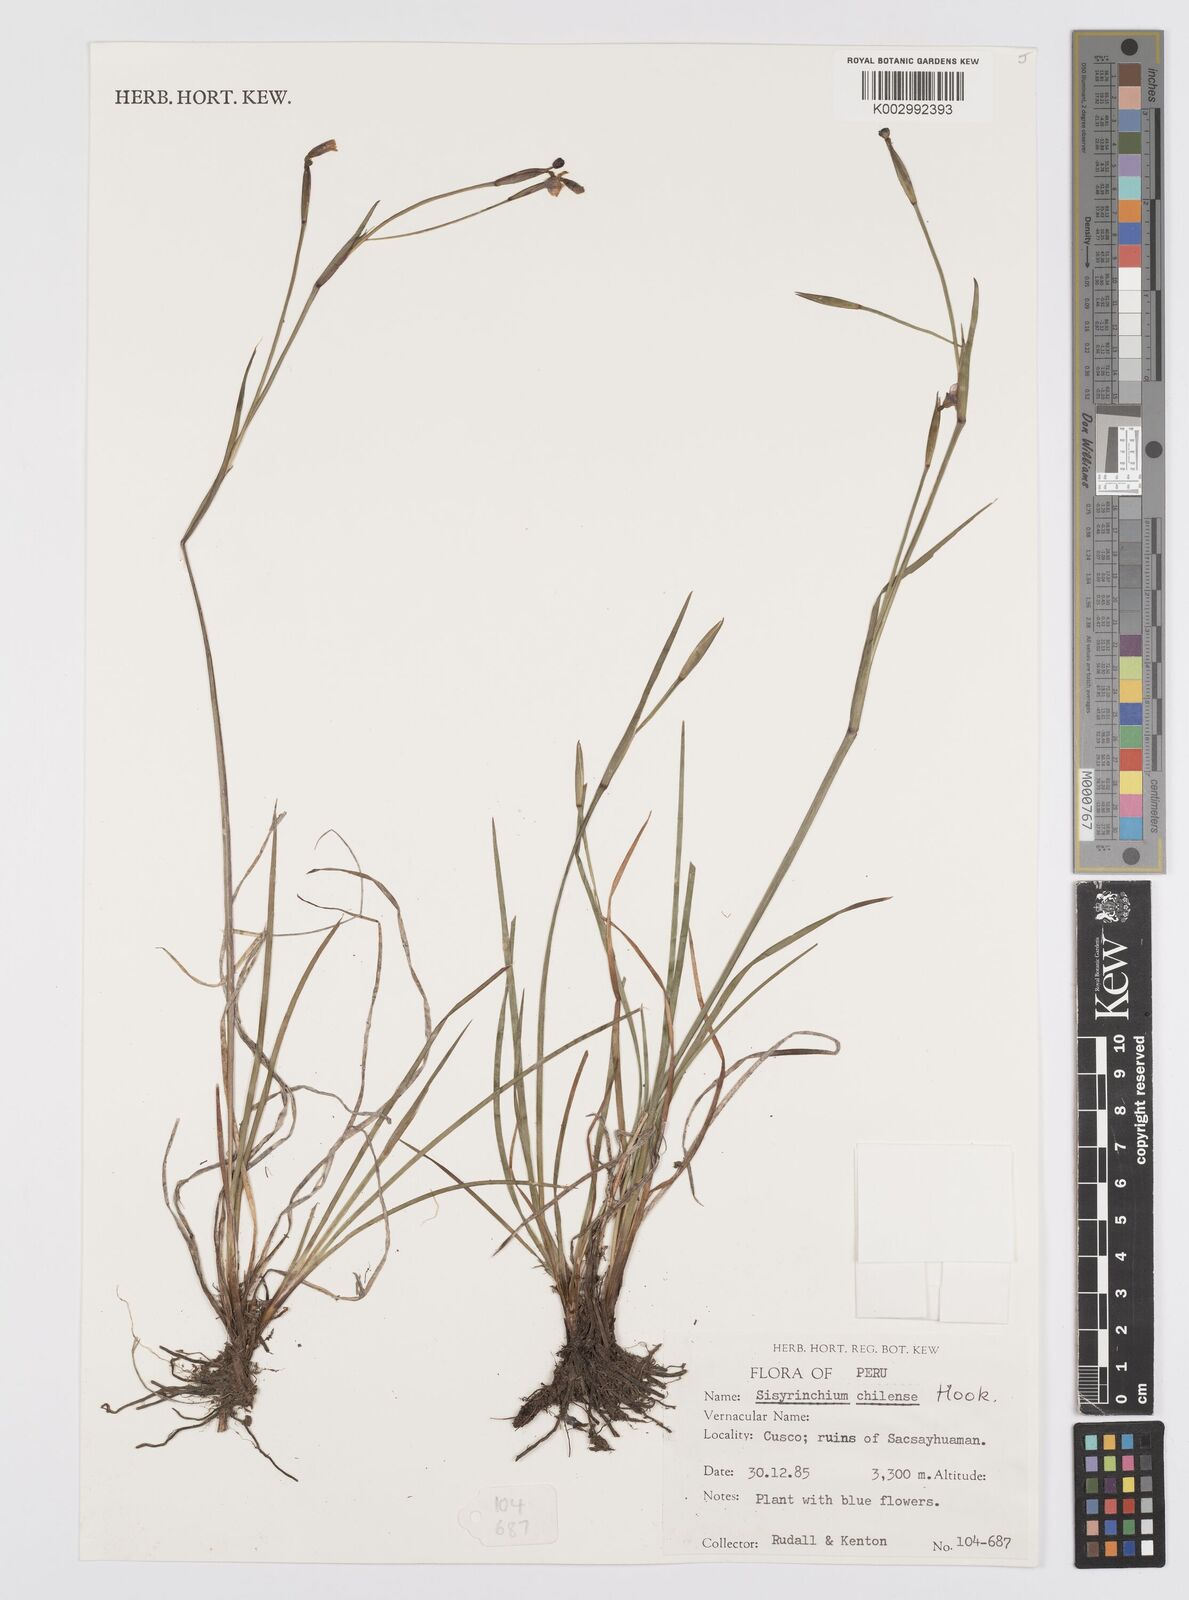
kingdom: Plantae
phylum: Tracheophyta
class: Liliopsida
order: Asparagales
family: Iridaceae
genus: Sisyrinchium
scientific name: Sisyrinchium chilense
